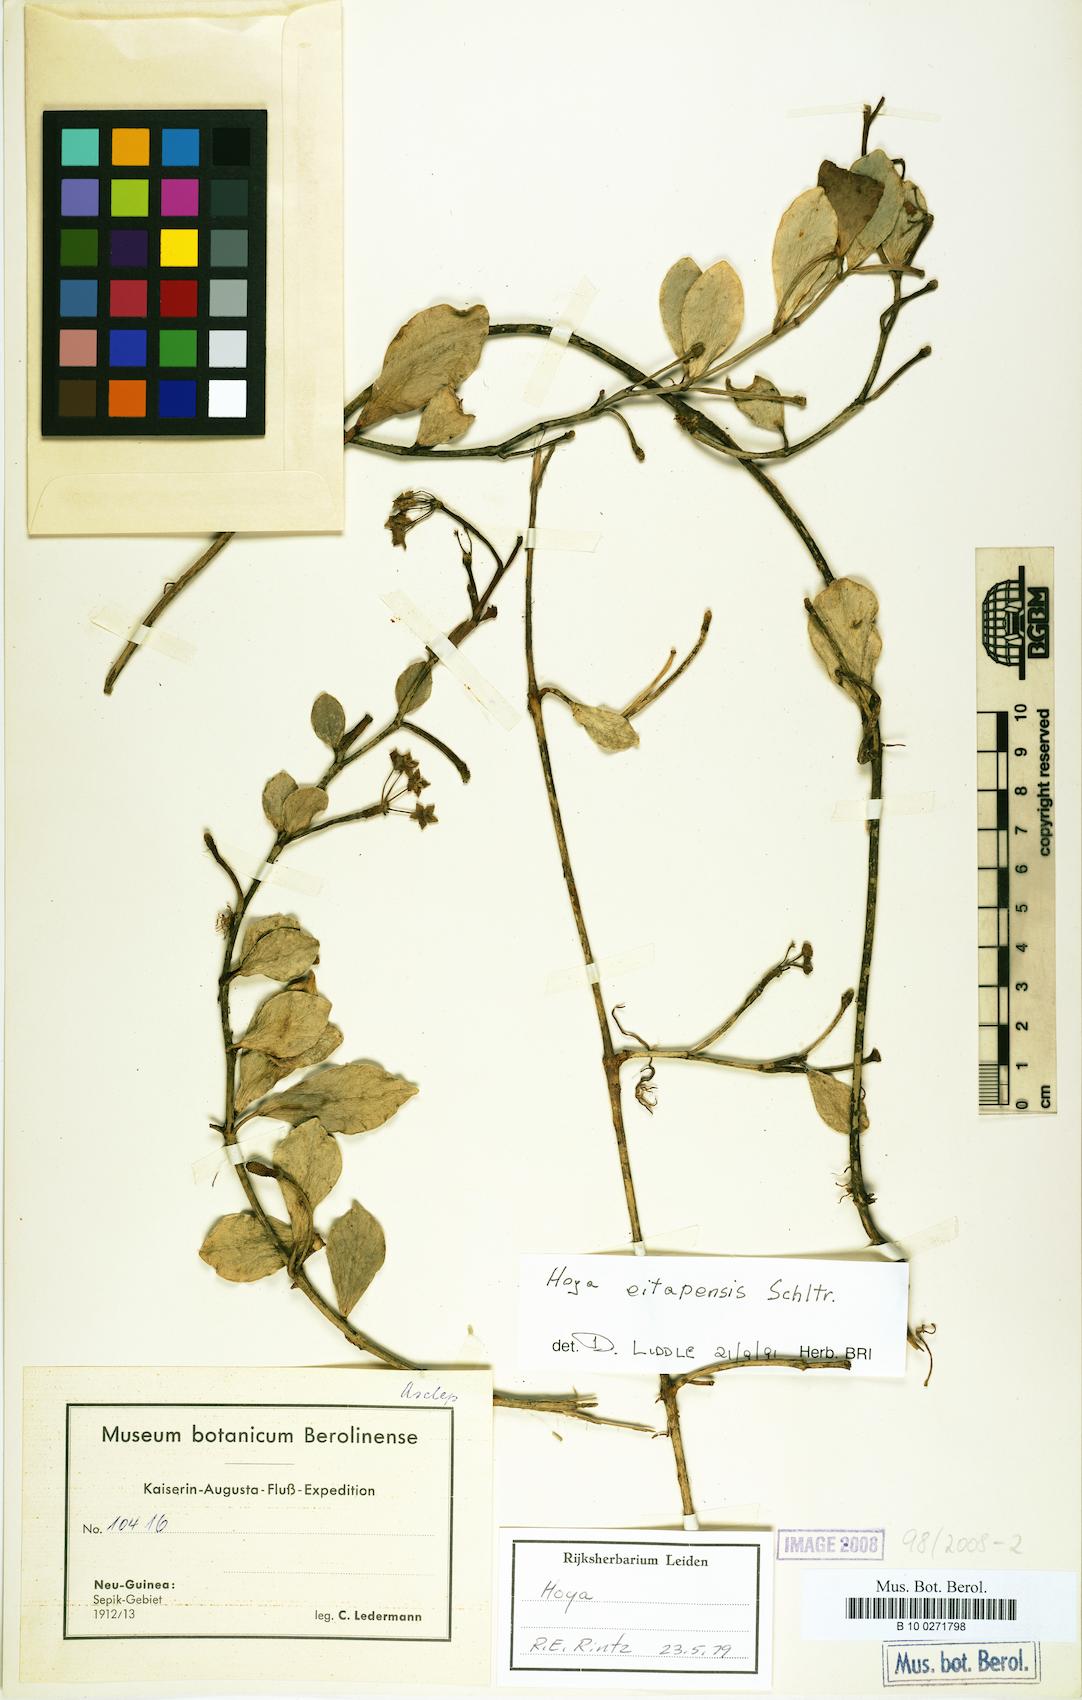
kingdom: Plantae
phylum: Tracheophyta
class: Magnoliopsida
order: Gentianales
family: Apocynaceae
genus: Hoya
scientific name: Hoya eitapensis
